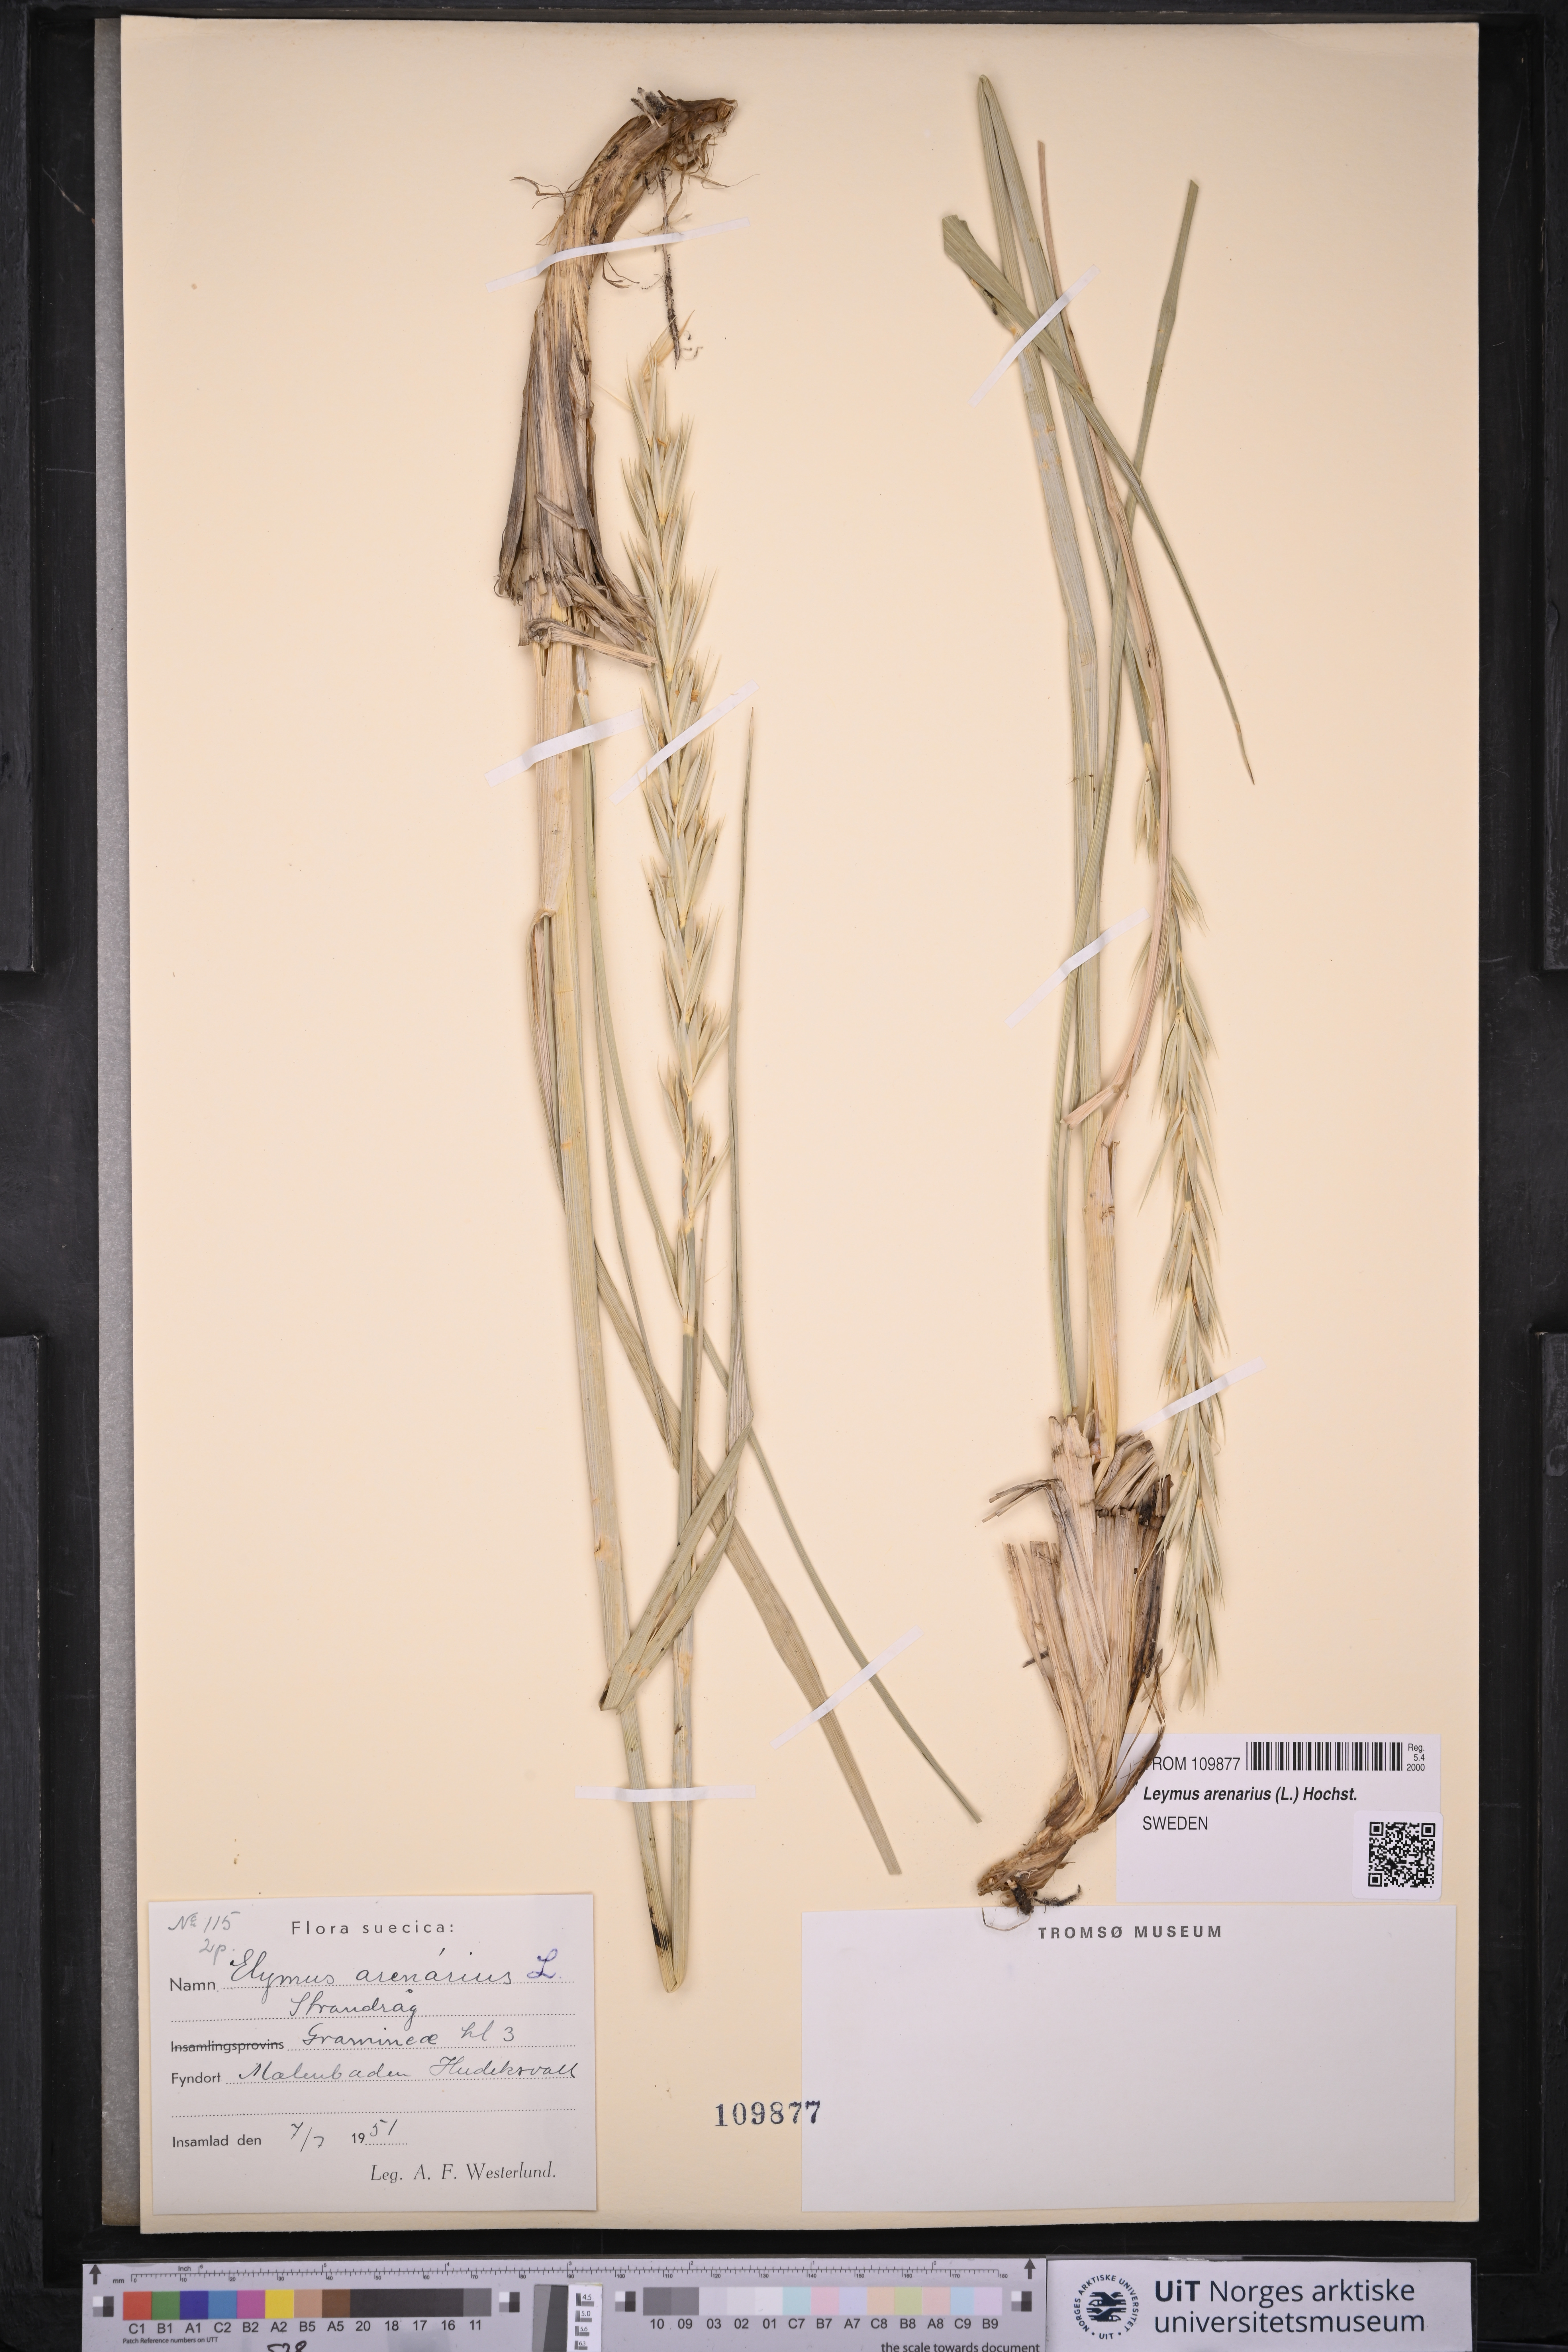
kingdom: Plantae
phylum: Tracheophyta
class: Liliopsida
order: Poales
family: Poaceae
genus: Leymus
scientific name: Leymus arenarius
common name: Lyme-grass
